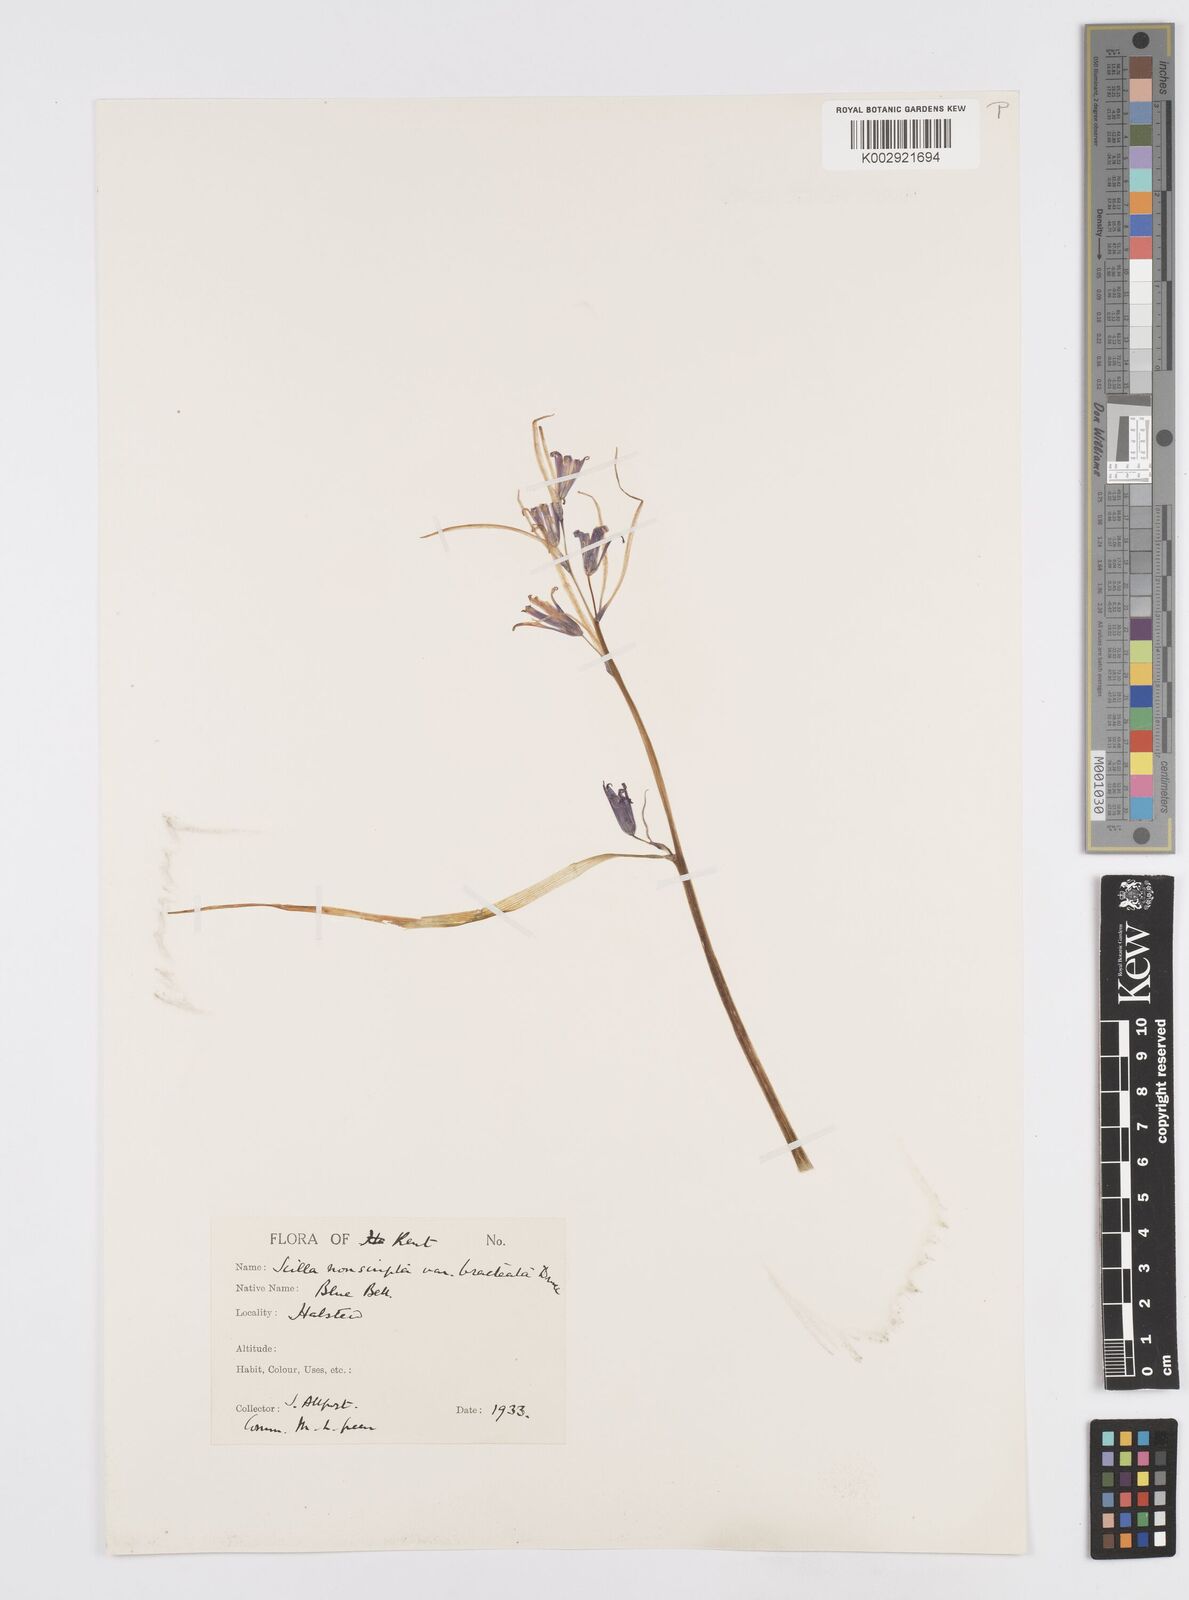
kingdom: Plantae
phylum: Tracheophyta
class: Liliopsida
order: Asparagales
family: Asparagaceae
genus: Hyacinthoides
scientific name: Hyacinthoides
